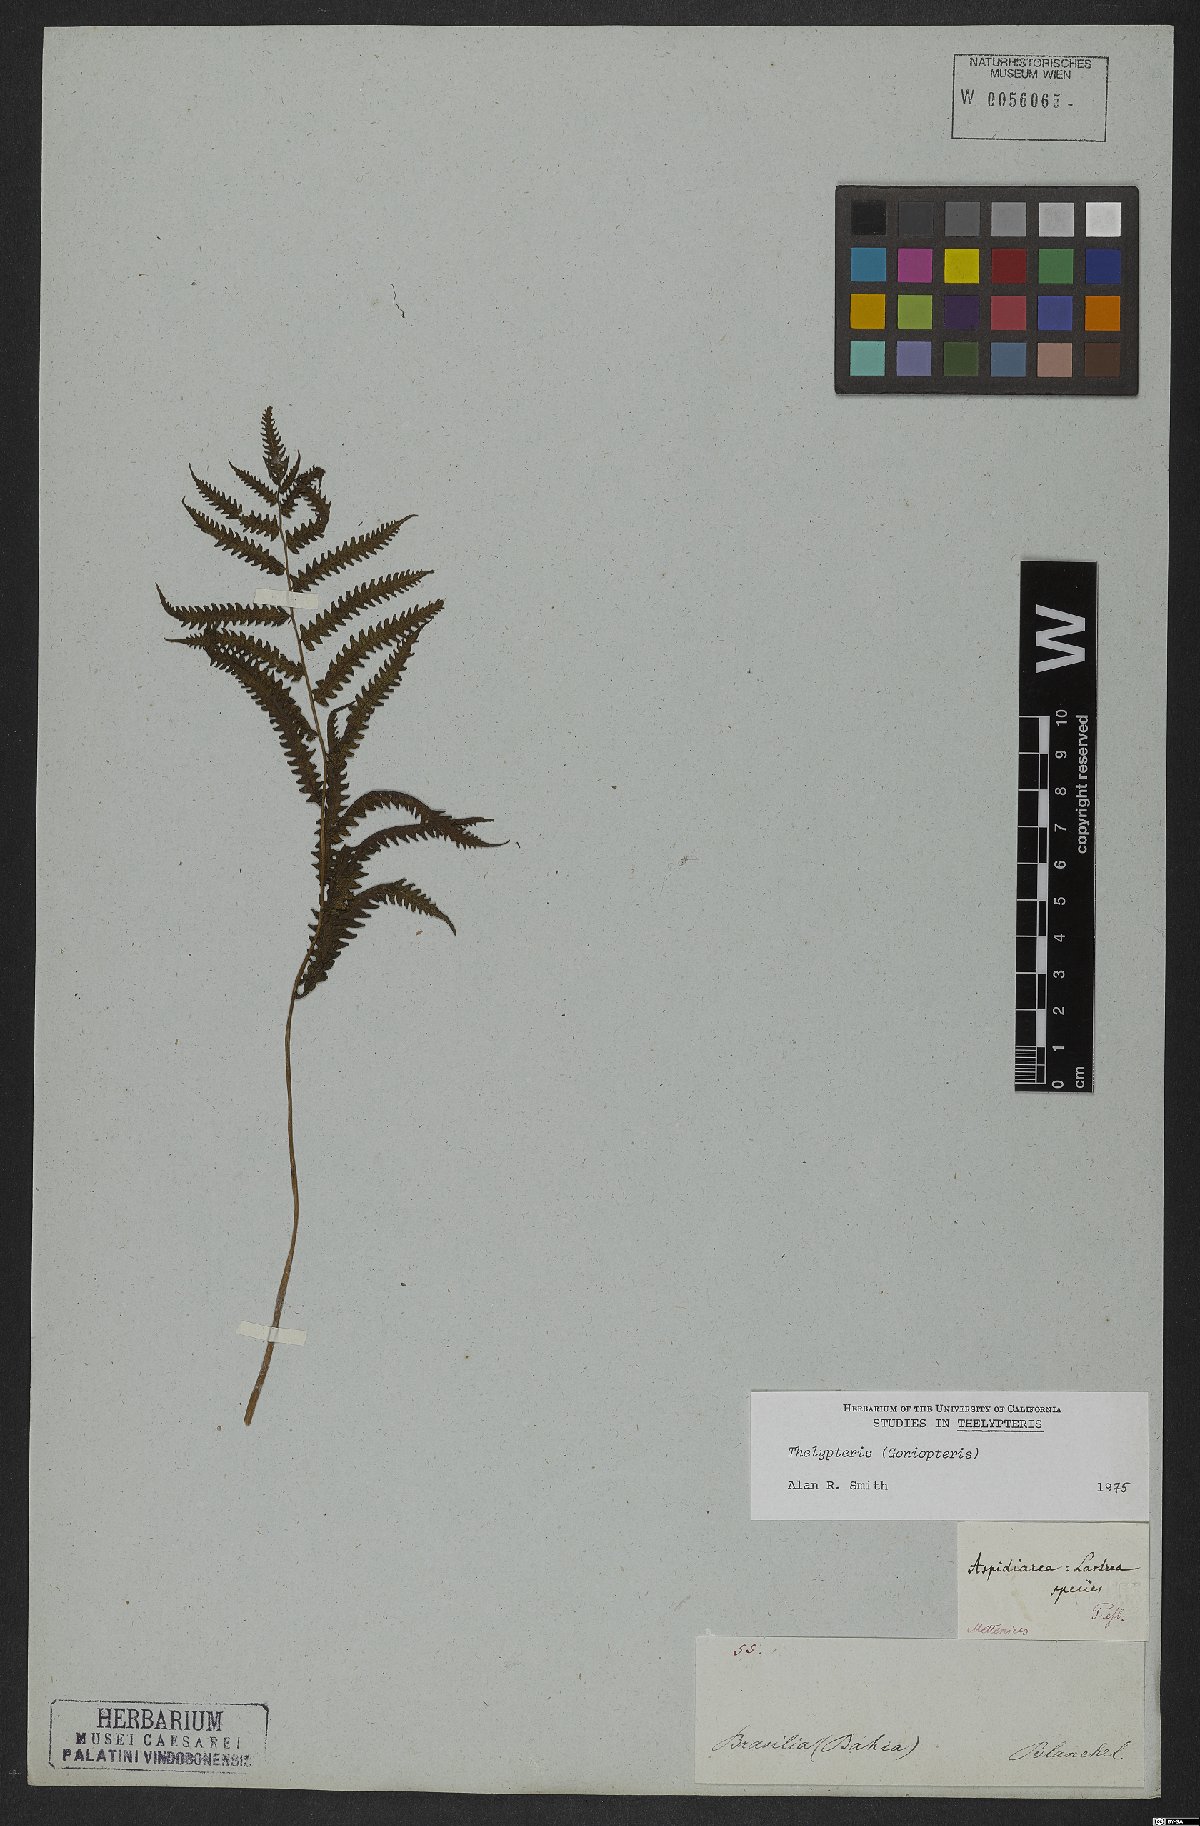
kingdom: Plantae
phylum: Tracheophyta
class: Polypodiopsida
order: Polypodiales
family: Thelypteridaceae
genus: Thelypteris
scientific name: Thelypteris
